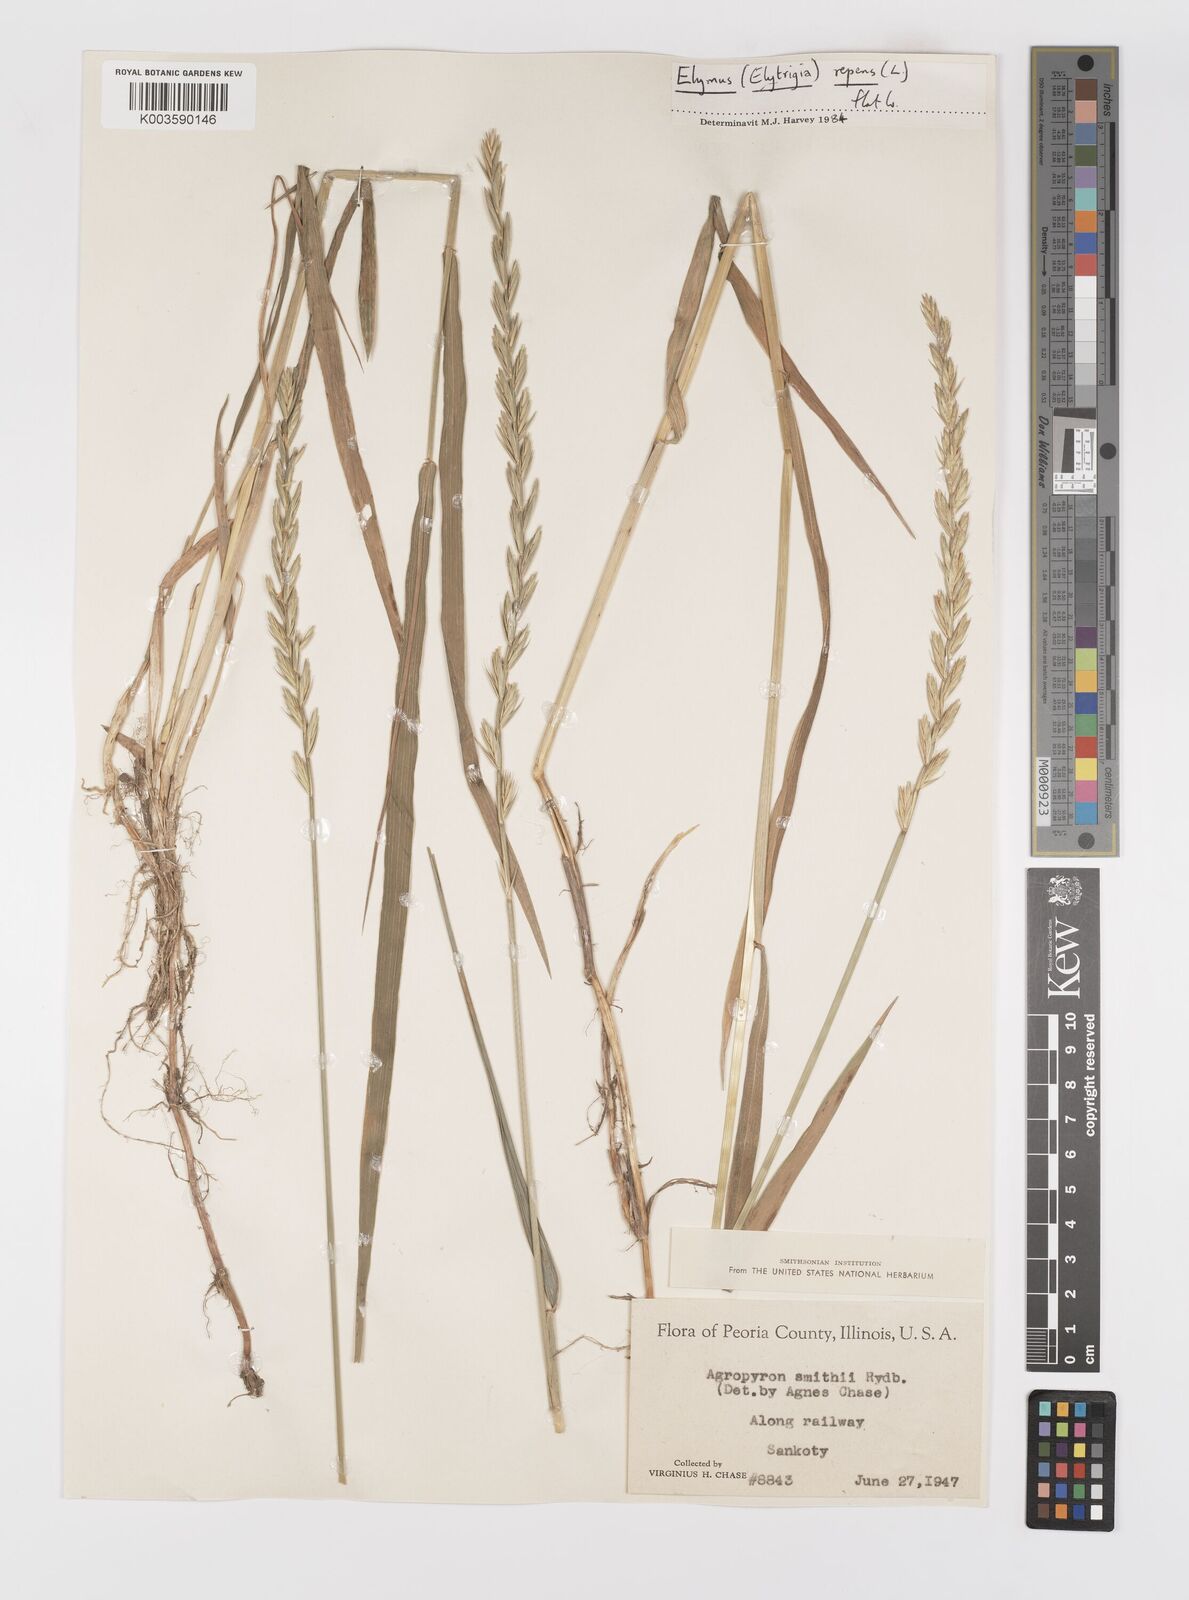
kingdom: Plantae
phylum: Tracheophyta
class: Liliopsida
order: Poales
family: Poaceae
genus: Elymus
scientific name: Elymus smithii
